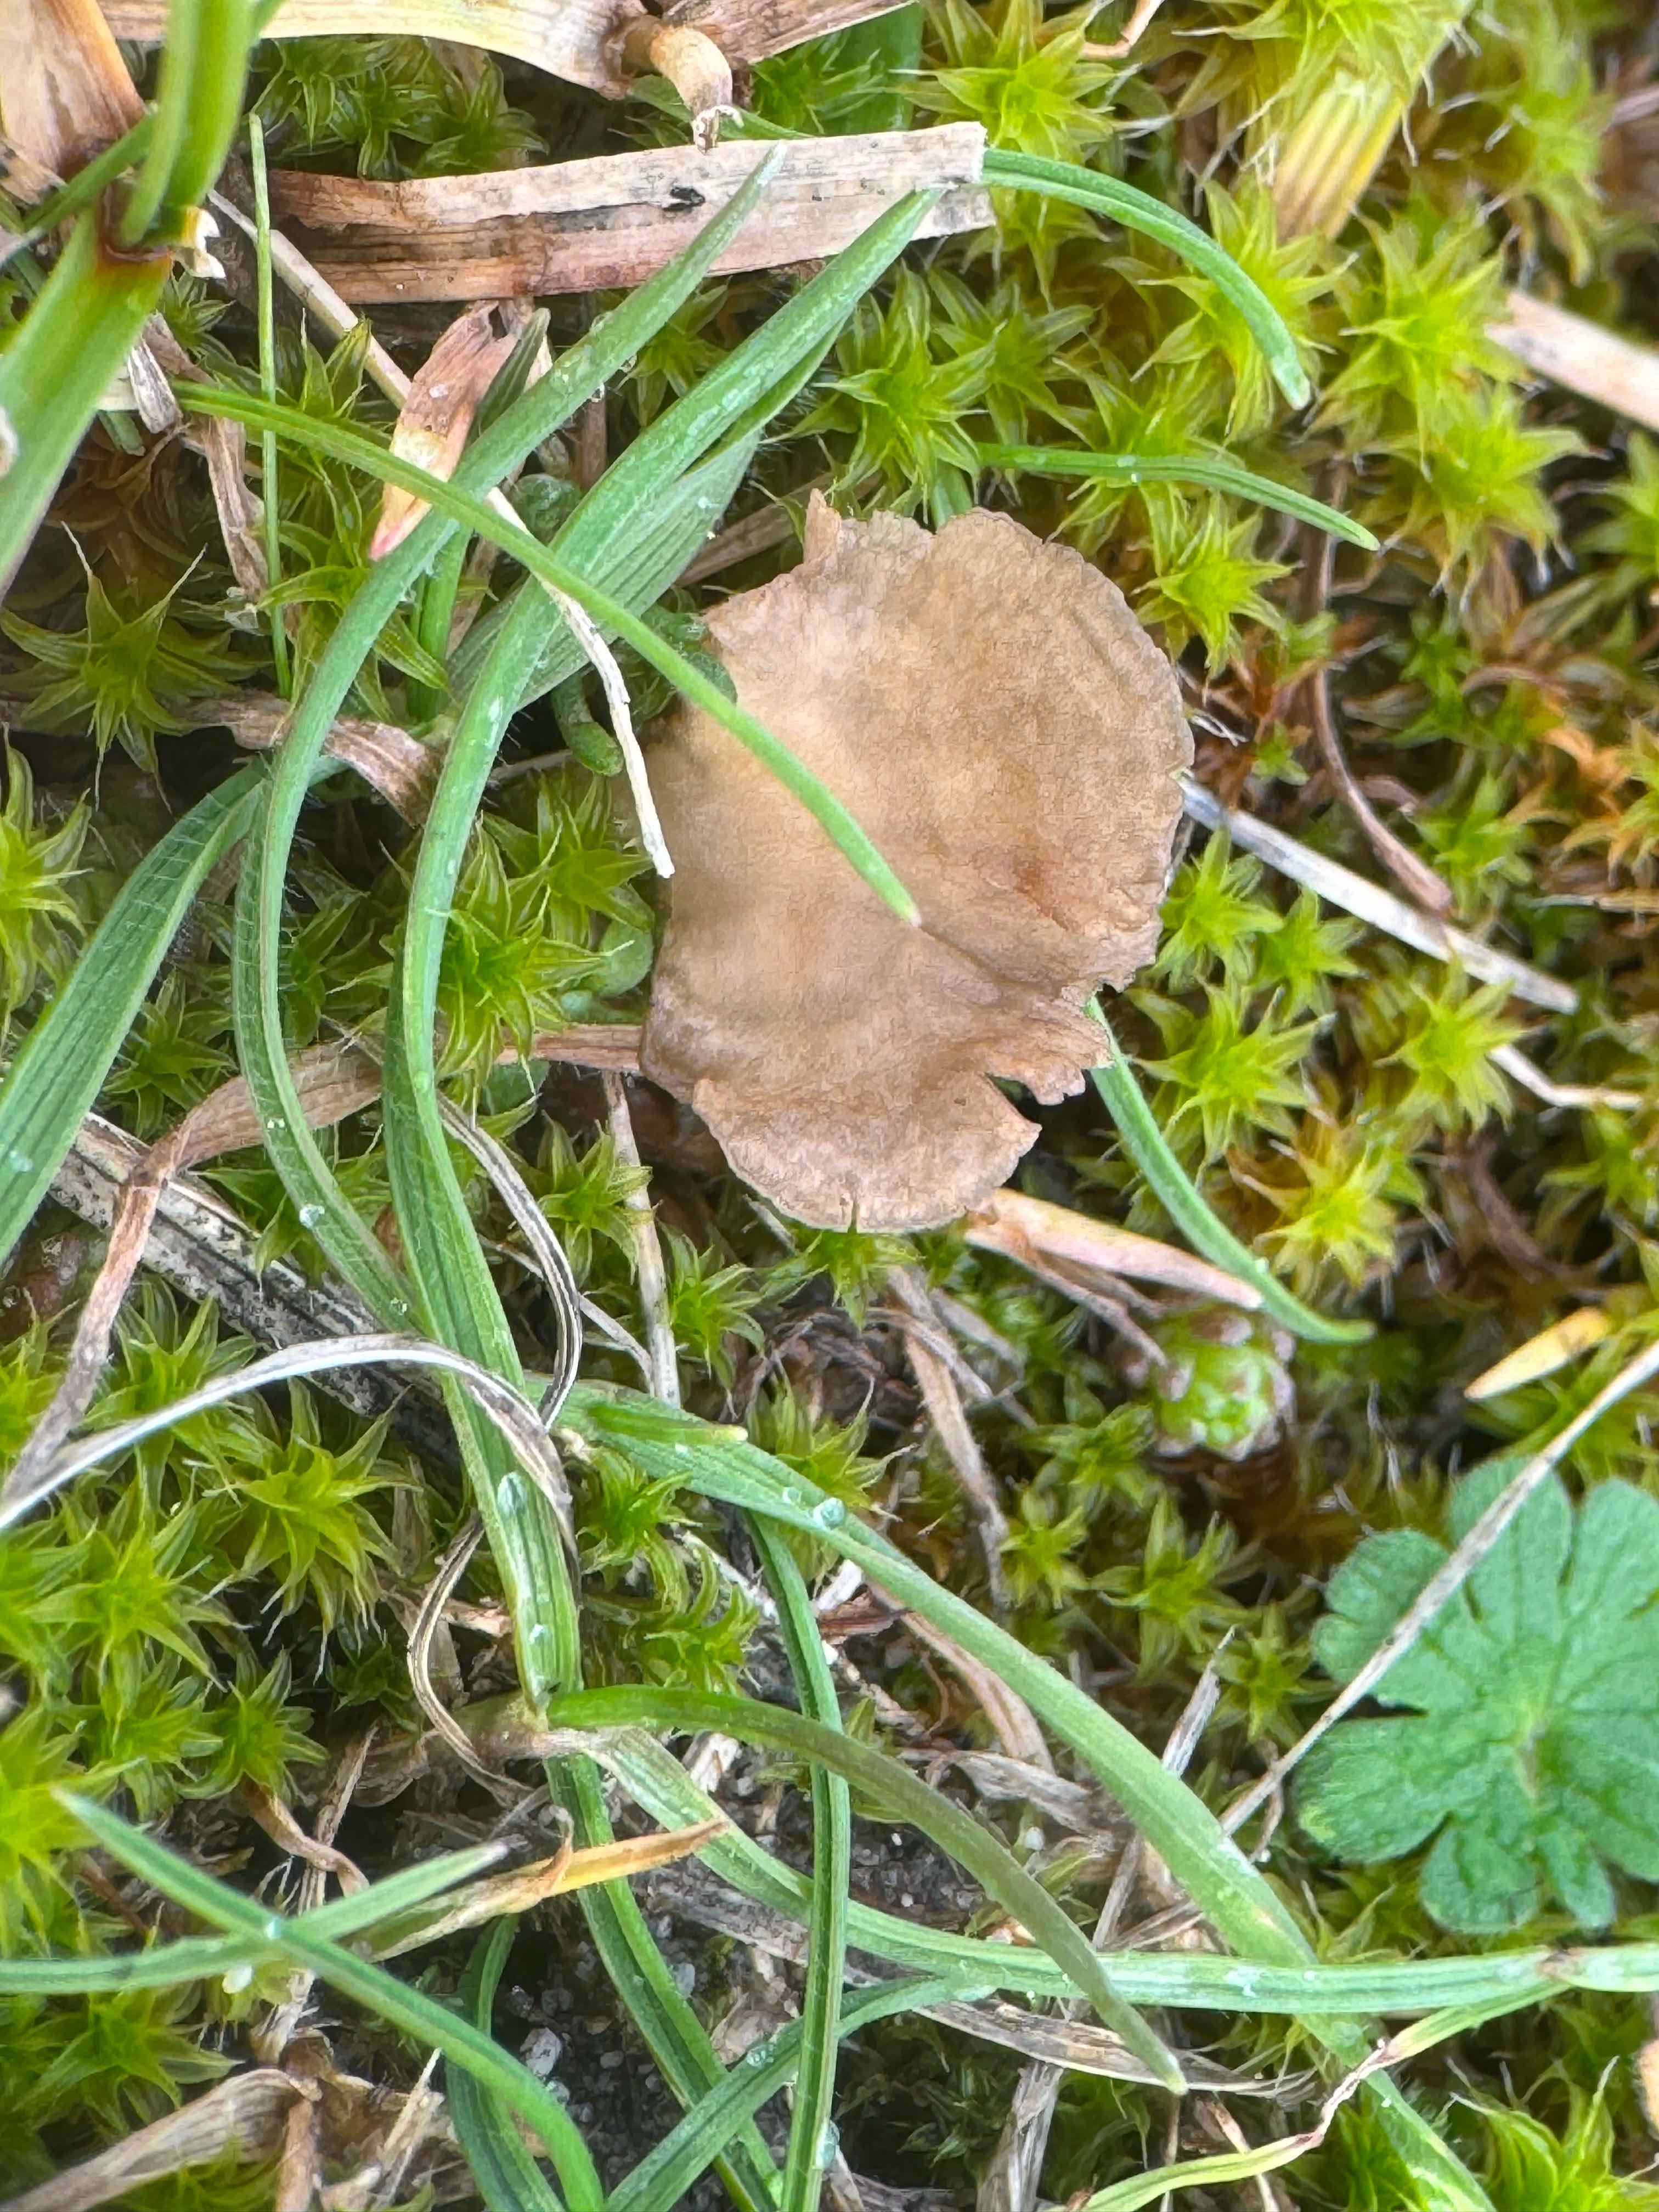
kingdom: Fungi
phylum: Basidiomycota
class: Agaricomycetes
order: Agaricales
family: Hygrophoraceae
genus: Arrhenia
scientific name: Arrhenia spathulata
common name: skæv fontænehat
